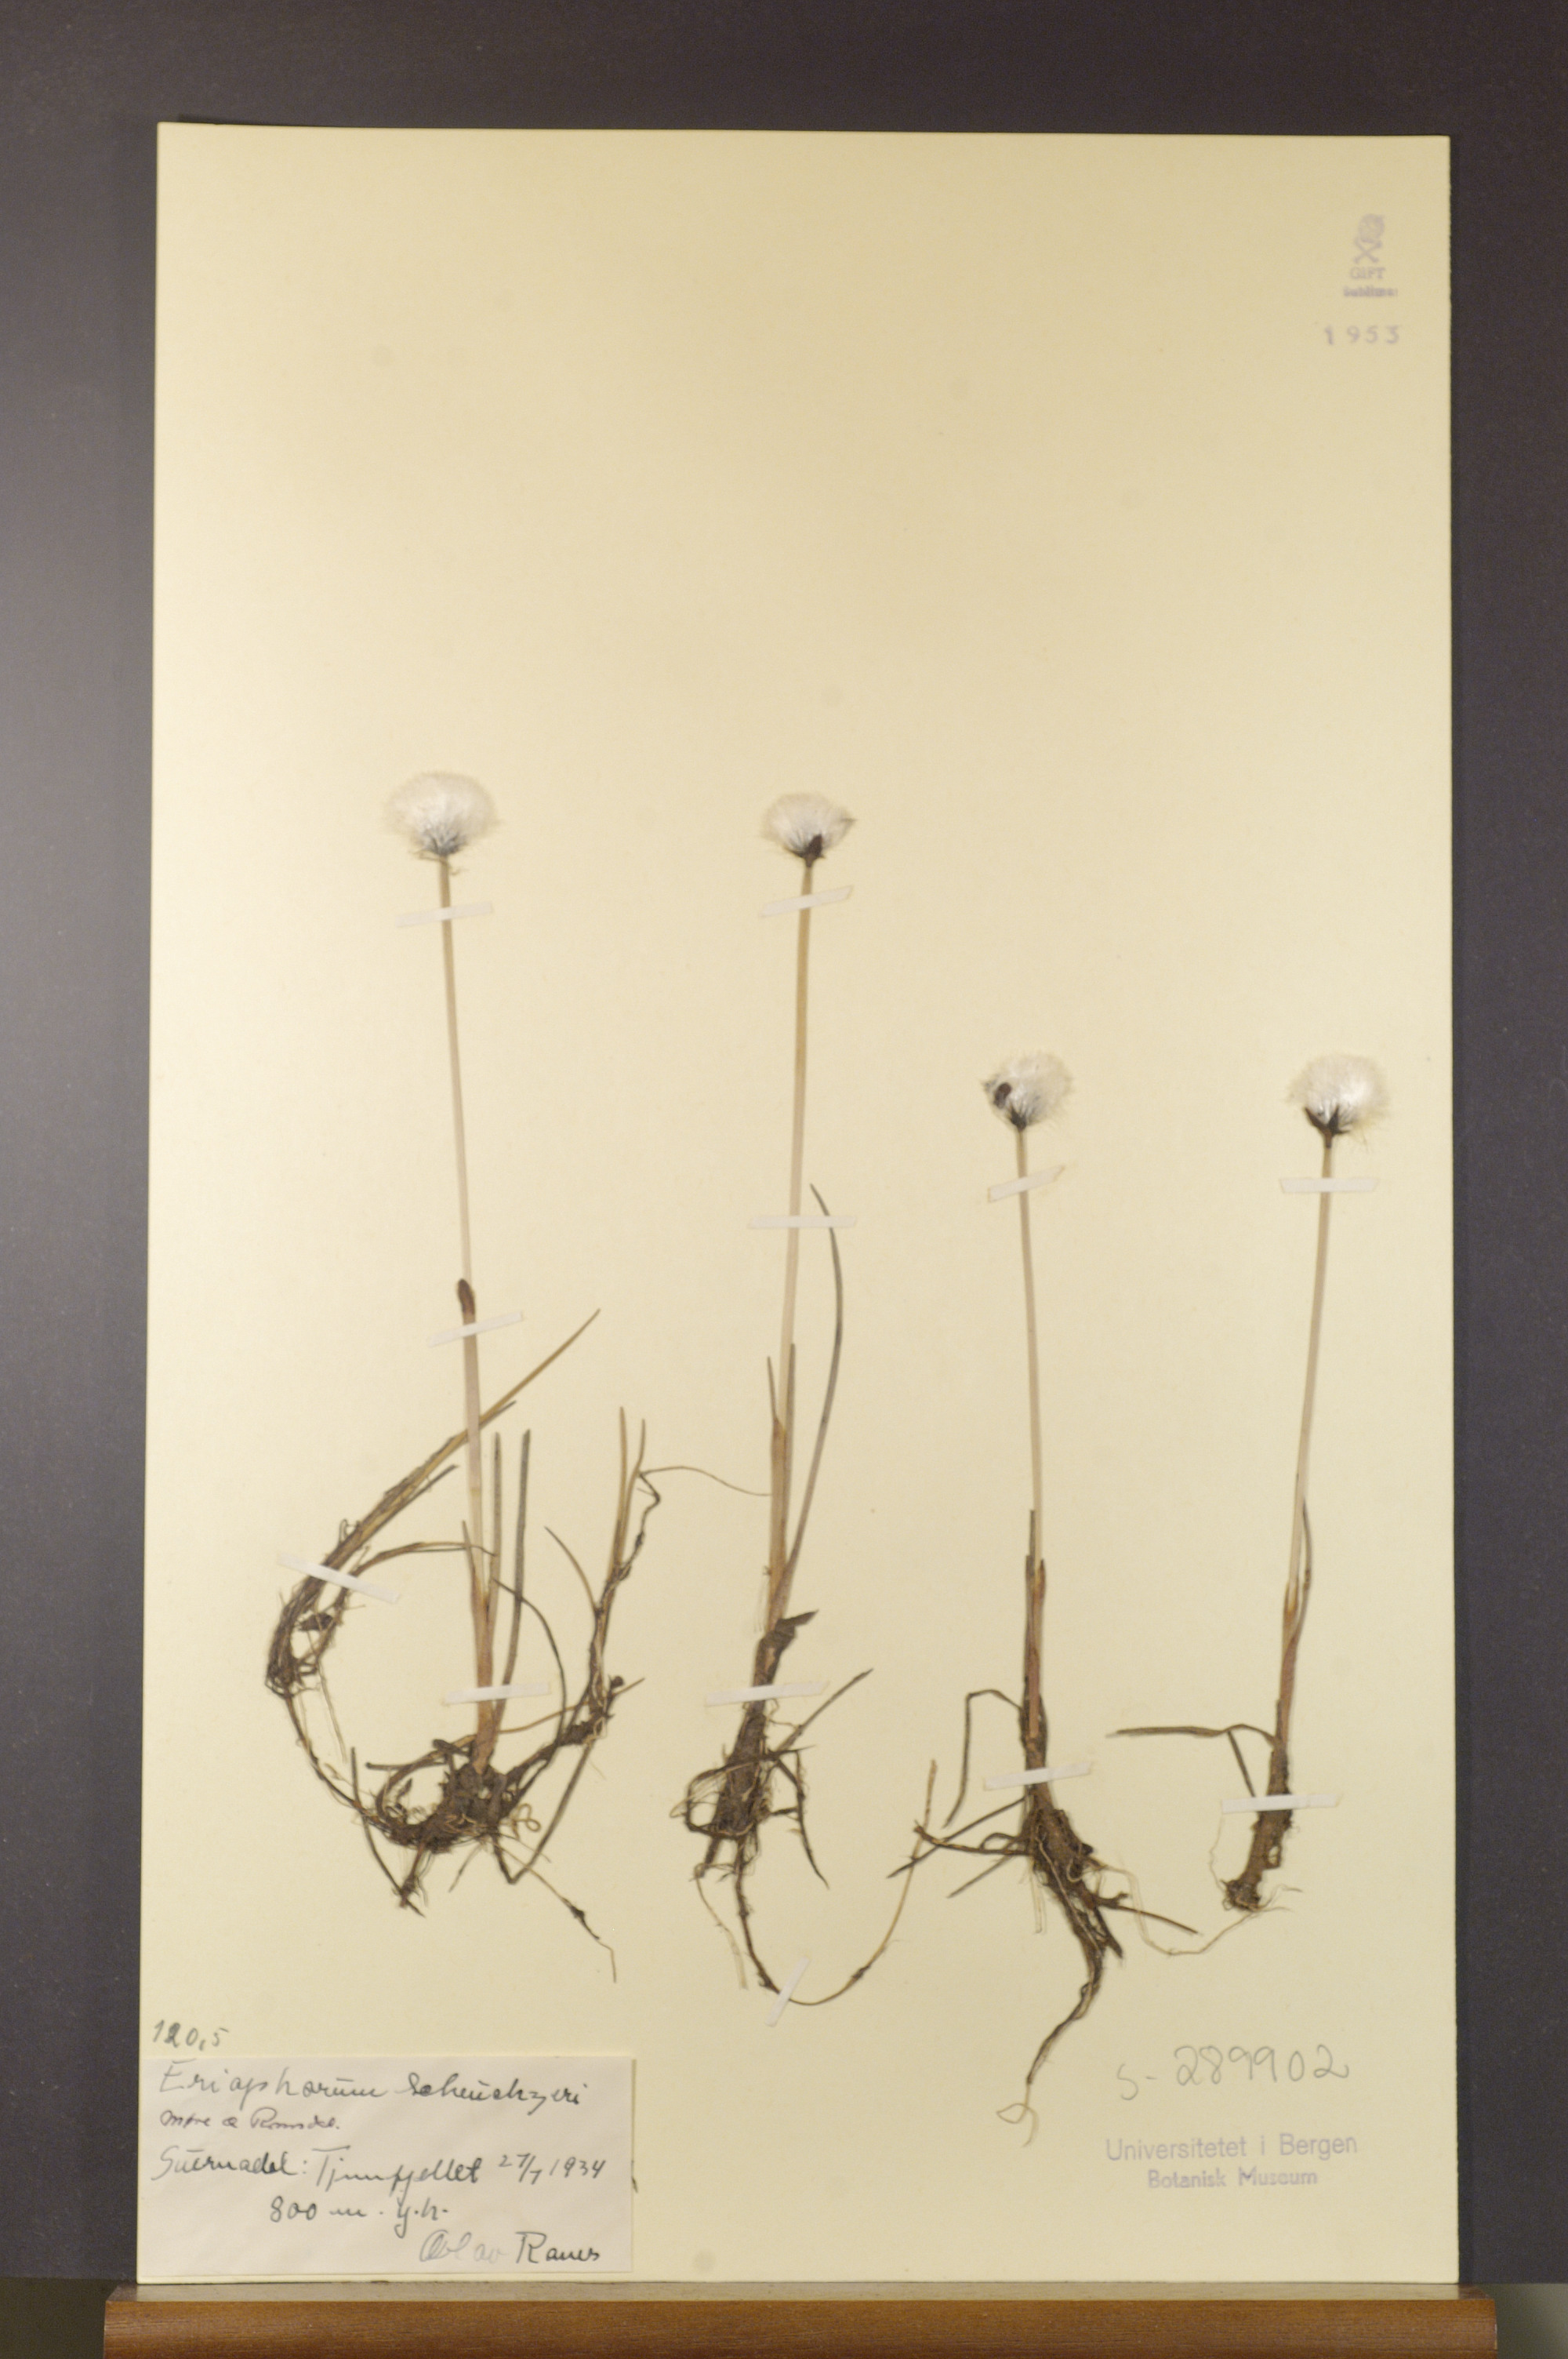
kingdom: Plantae
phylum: Tracheophyta
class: Liliopsida
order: Poales
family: Cyperaceae
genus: Eriophorum
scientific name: Eriophorum scheuchzeri
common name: Scheuchzer's cottongrass
